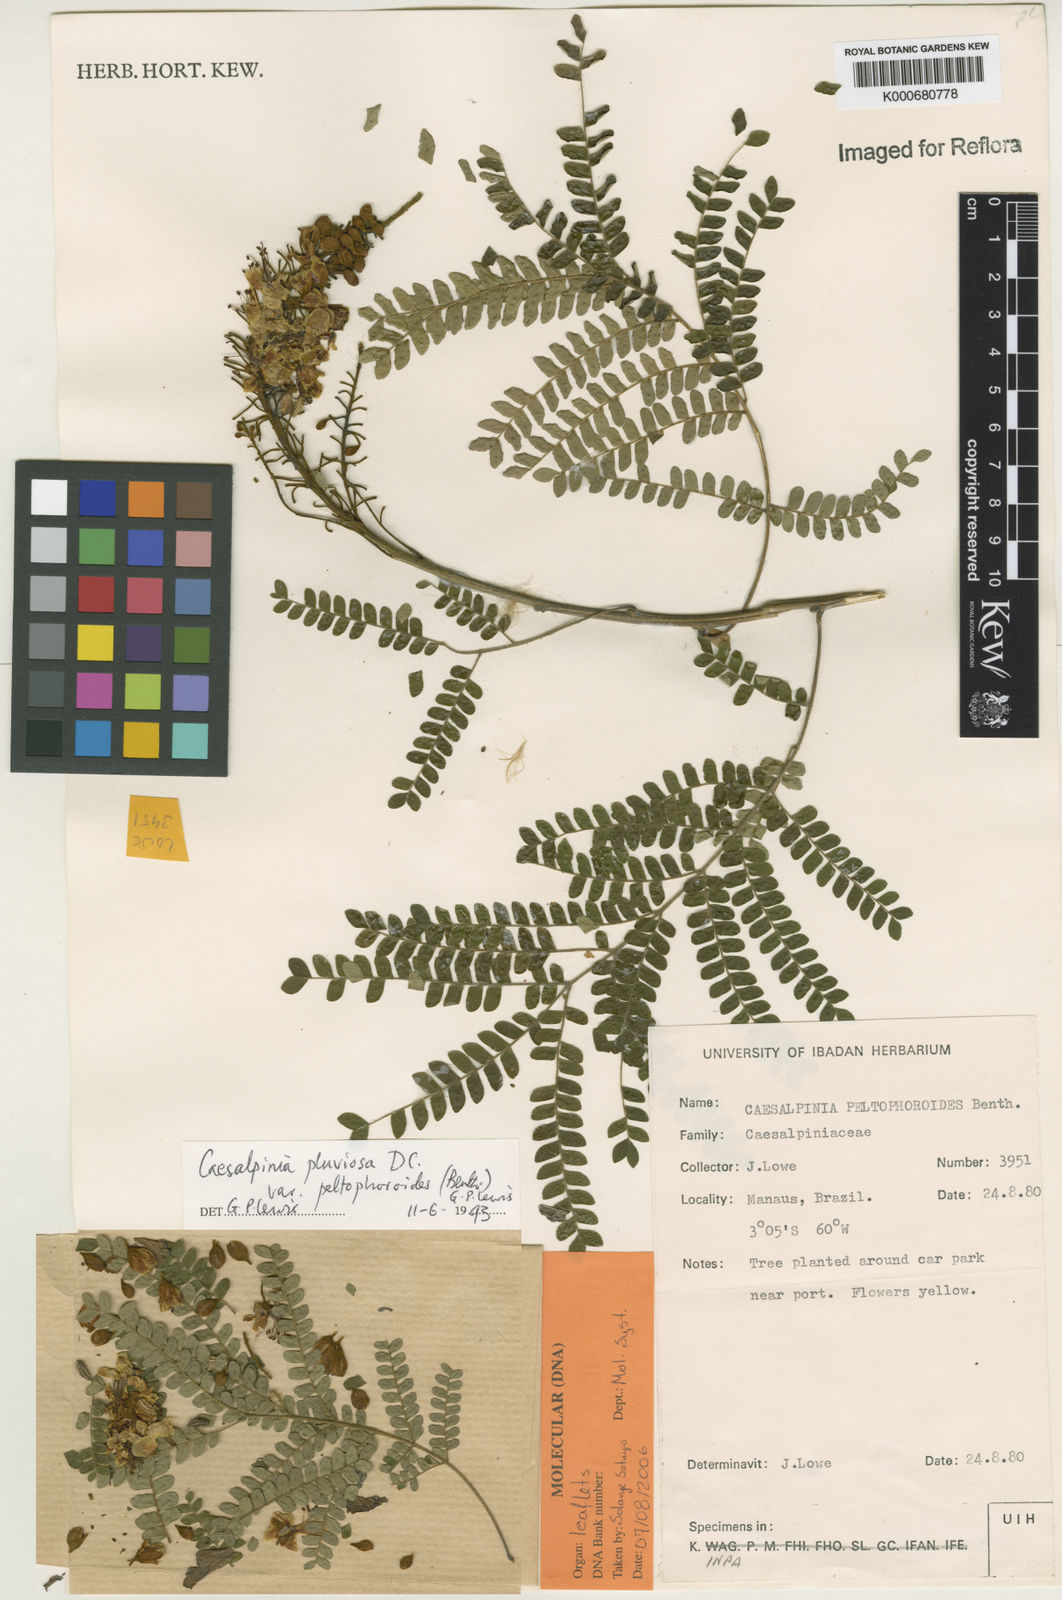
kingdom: Plantae
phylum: Tracheophyta
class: Magnoliopsida
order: Fabales
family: Fabaceae
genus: Cenostigma
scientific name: Cenostigma pluviosum
